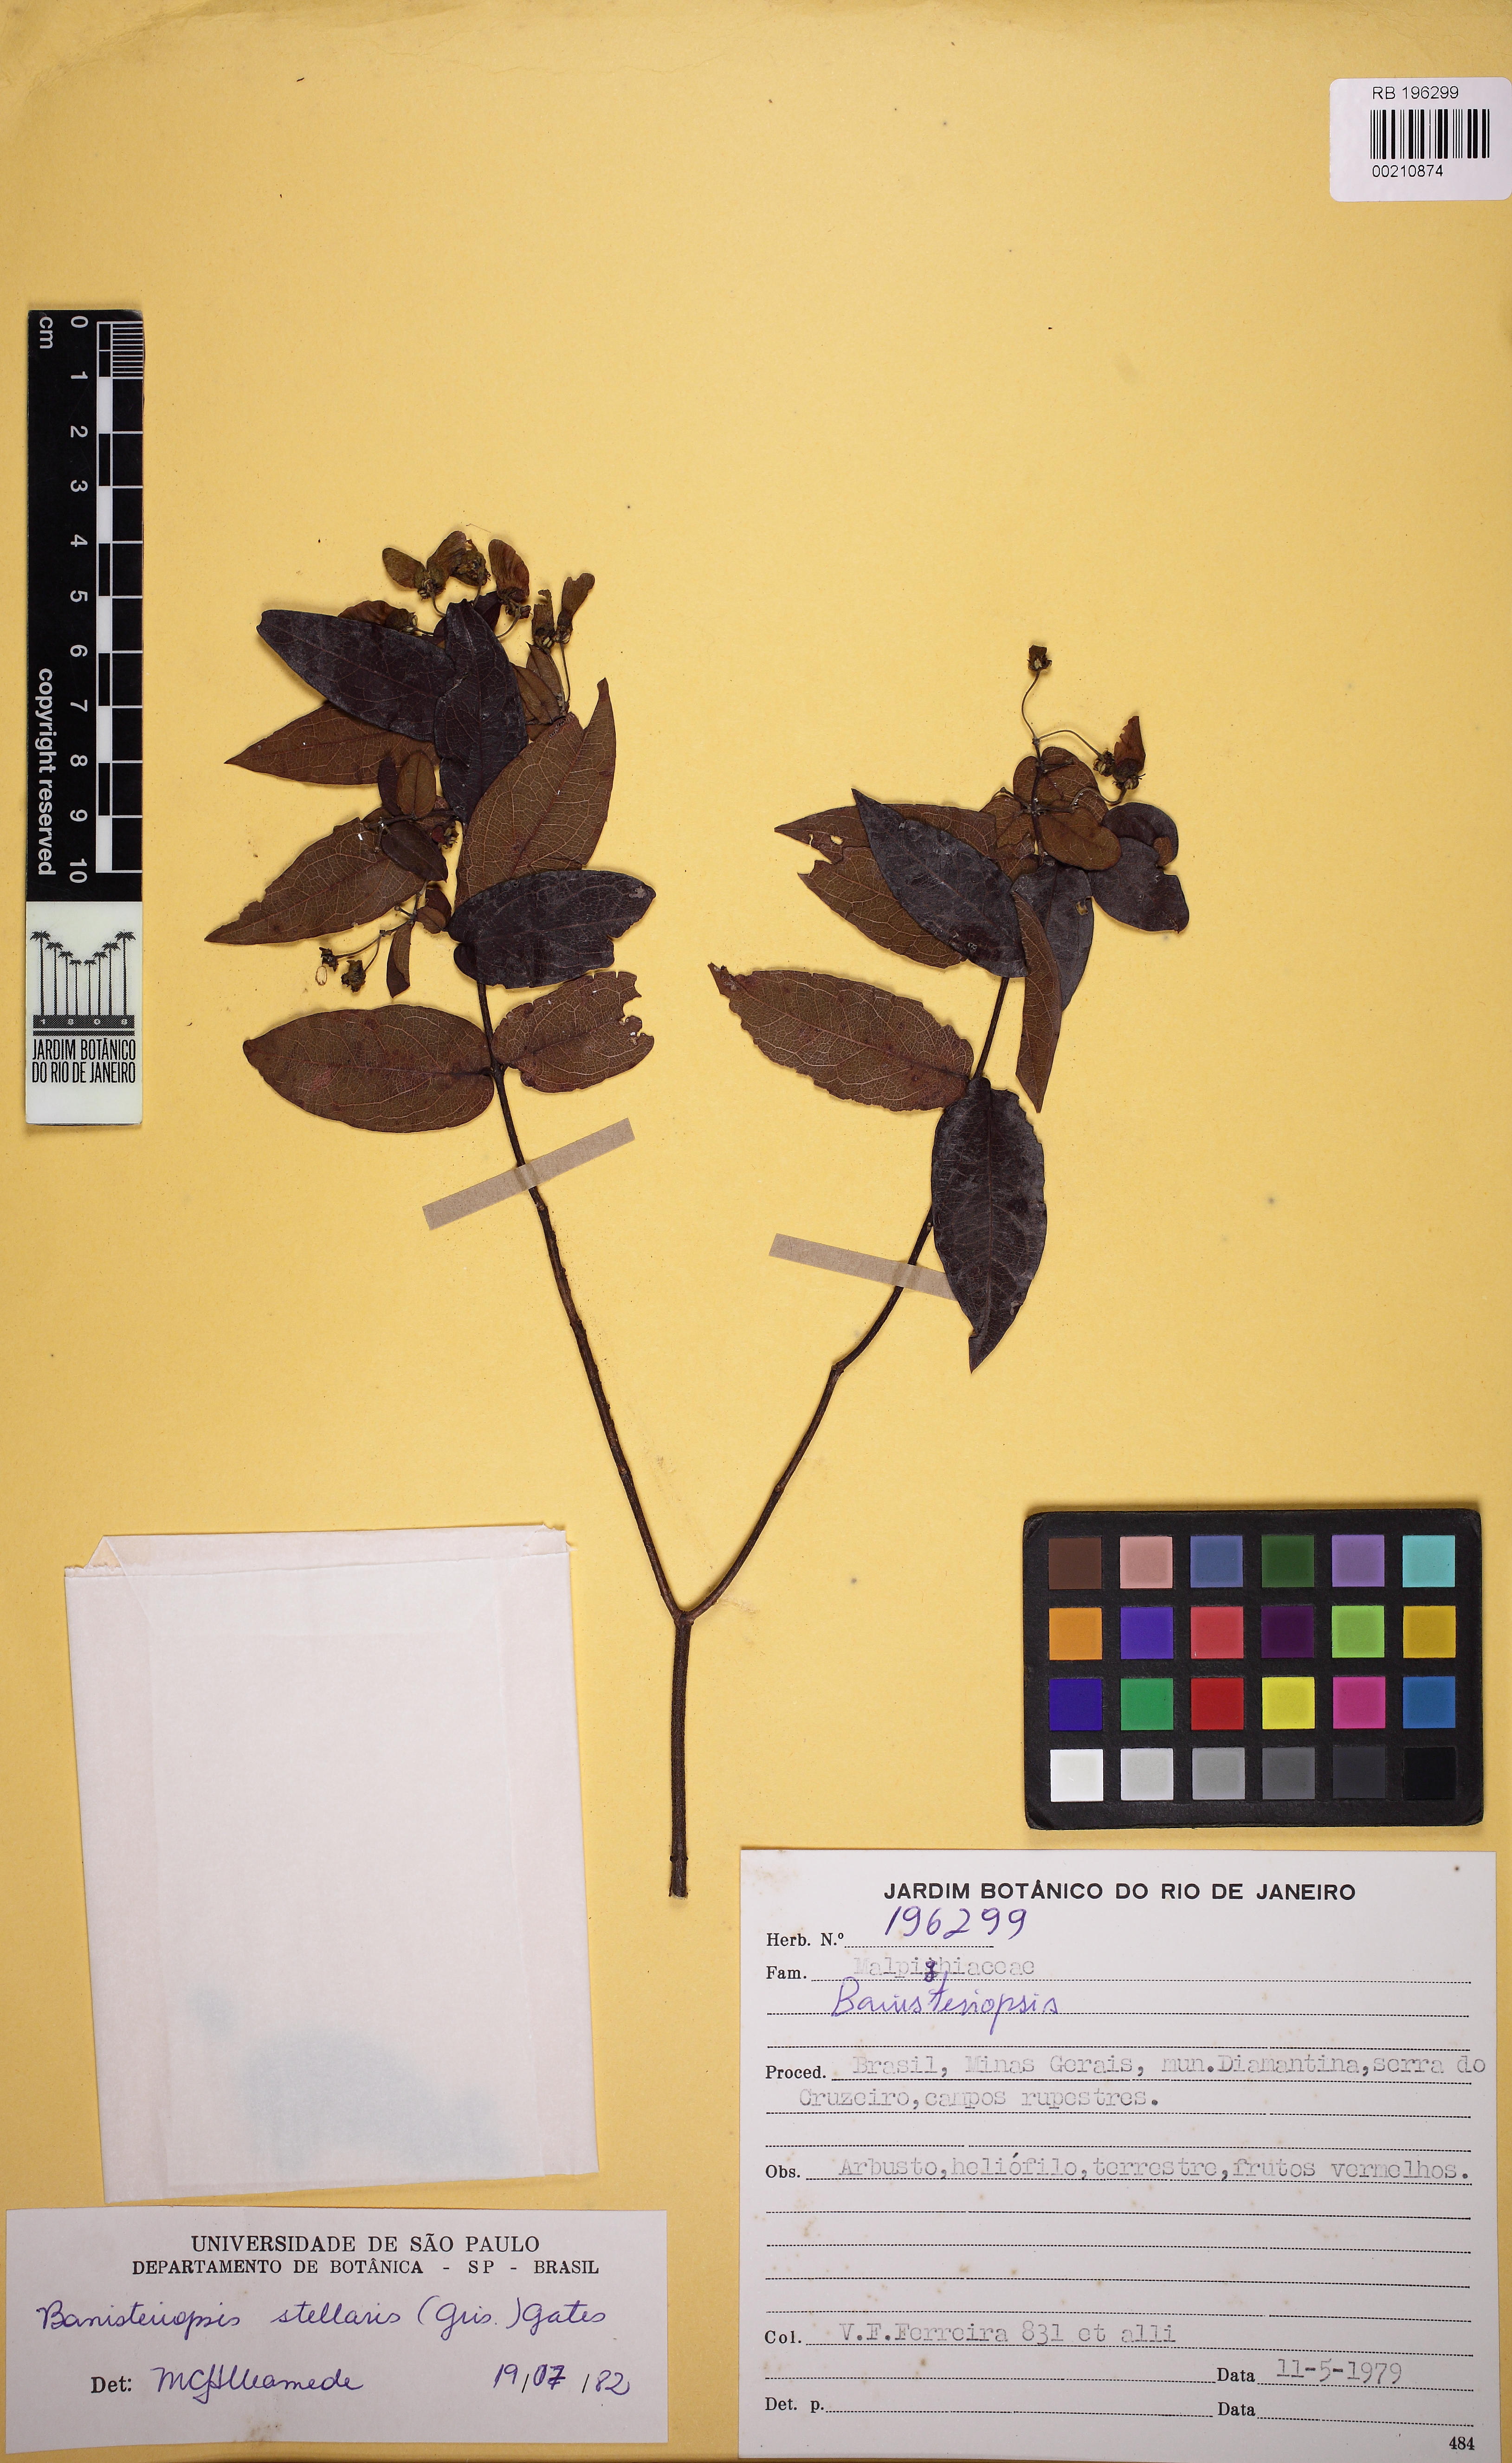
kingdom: Plantae
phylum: Tracheophyta
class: Magnoliopsida
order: Malpighiales
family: Malpighiaceae
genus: Banisteriopsis
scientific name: Banisteriopsis stellaris
